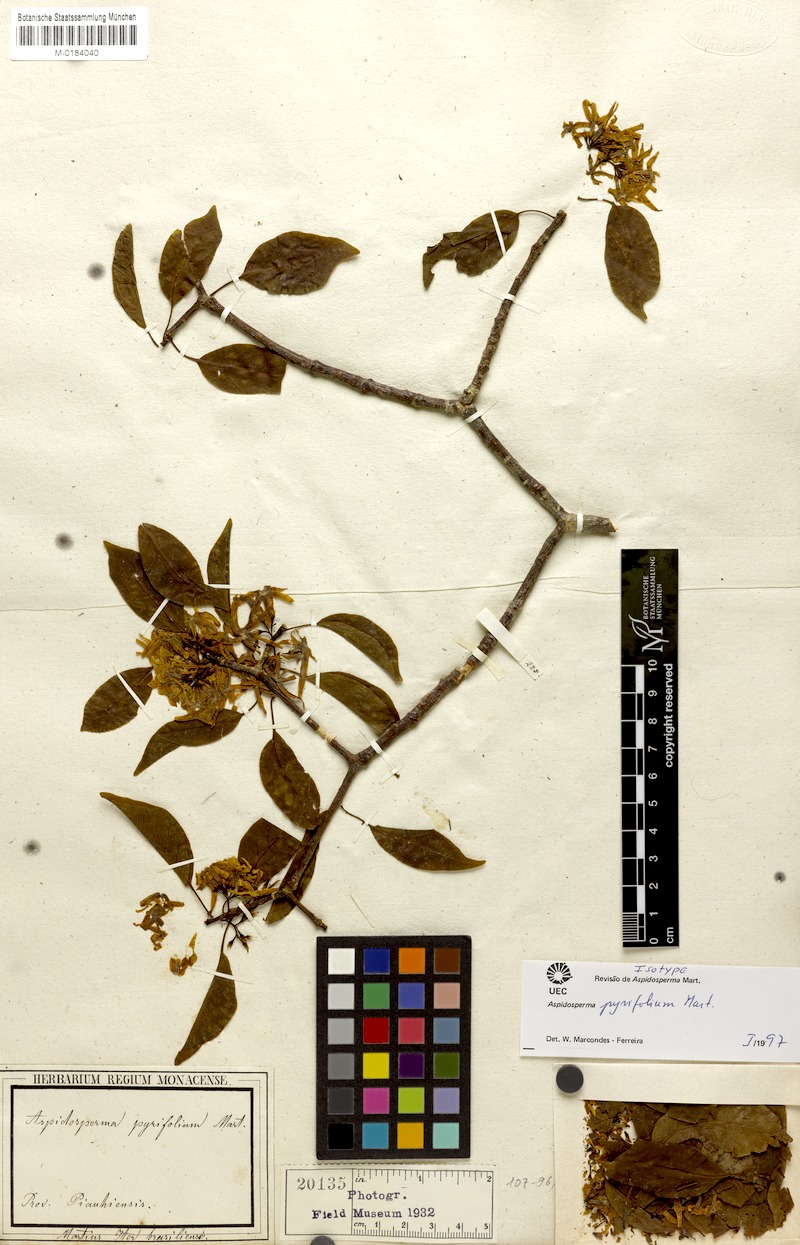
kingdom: Plantae
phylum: Tracheophyta
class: Magnoliopsida
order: Gentianales
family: Apocynaceae
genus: Aspidosperma
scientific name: Aspidosperma pyrifolium
